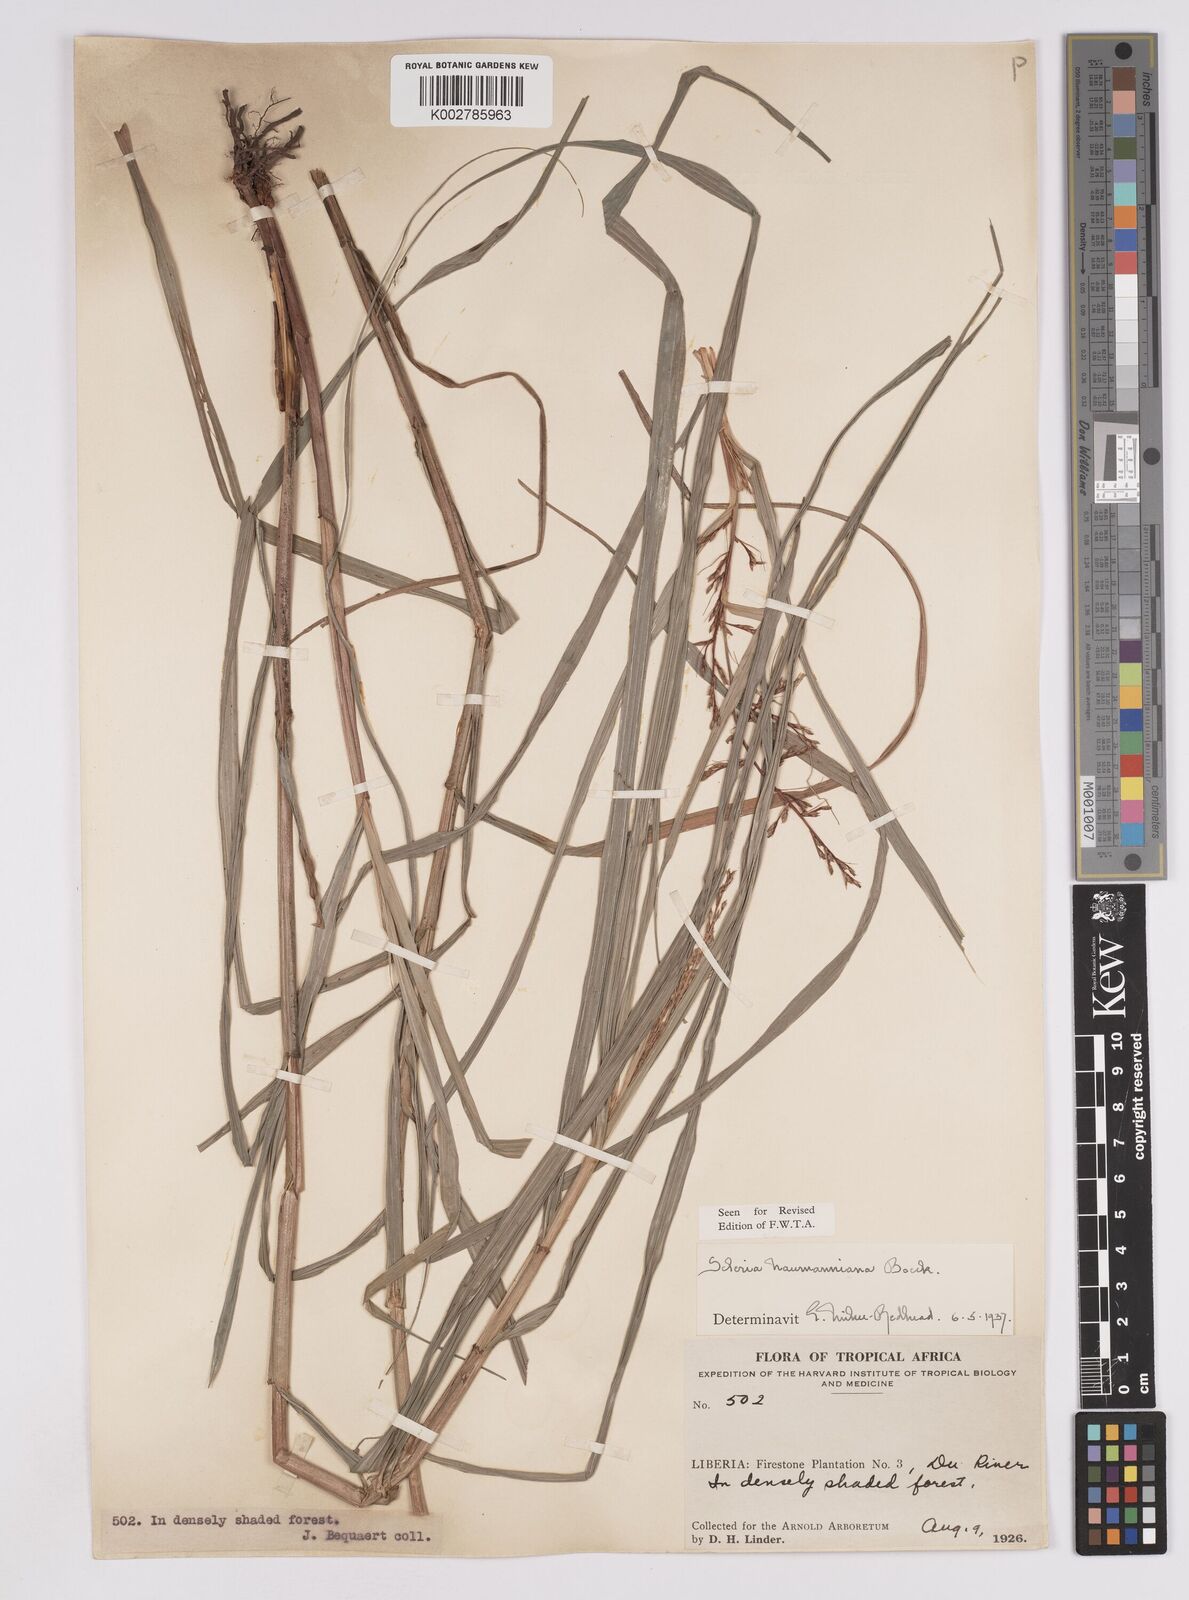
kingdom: Plantae
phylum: Tracheophyta
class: Liliopsida
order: Poales
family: Cyperaceae
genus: Scleria
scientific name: Scleria naumanniana
